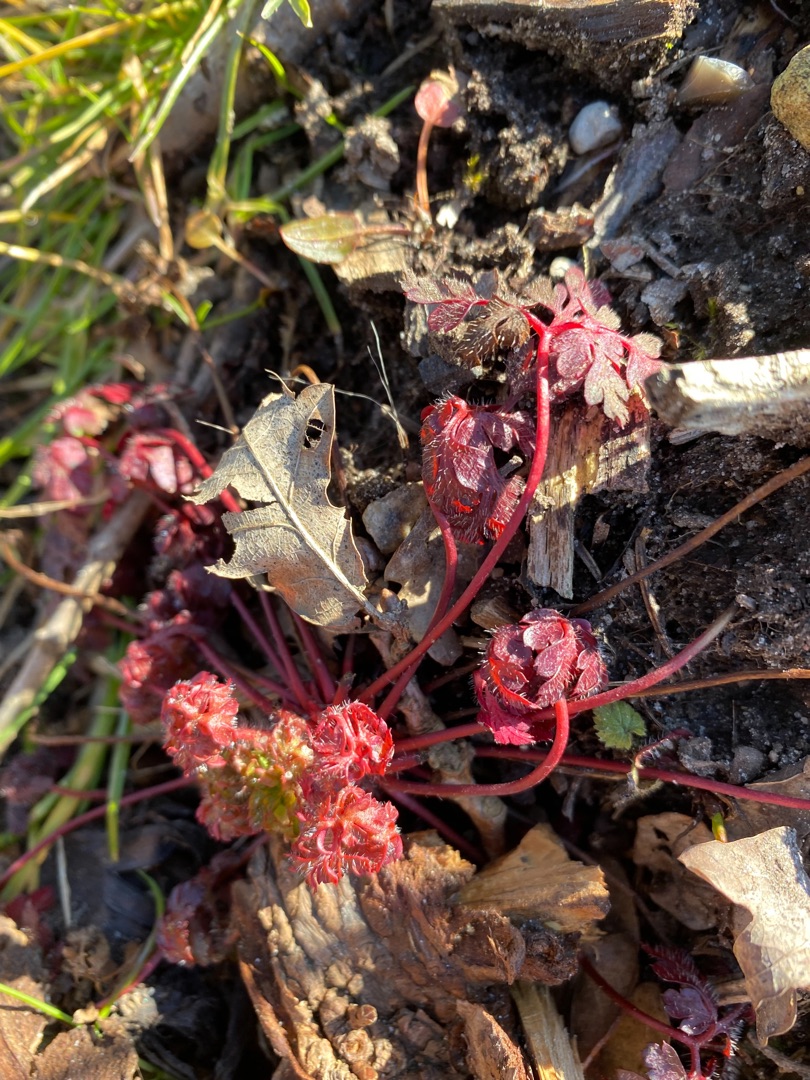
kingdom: Plantae
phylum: Tracheophyta
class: Magnoliopsida
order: Geraniales
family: Geraniaceae
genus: Geranium
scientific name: Geranium robertianum
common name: Stinkende storkenæb
